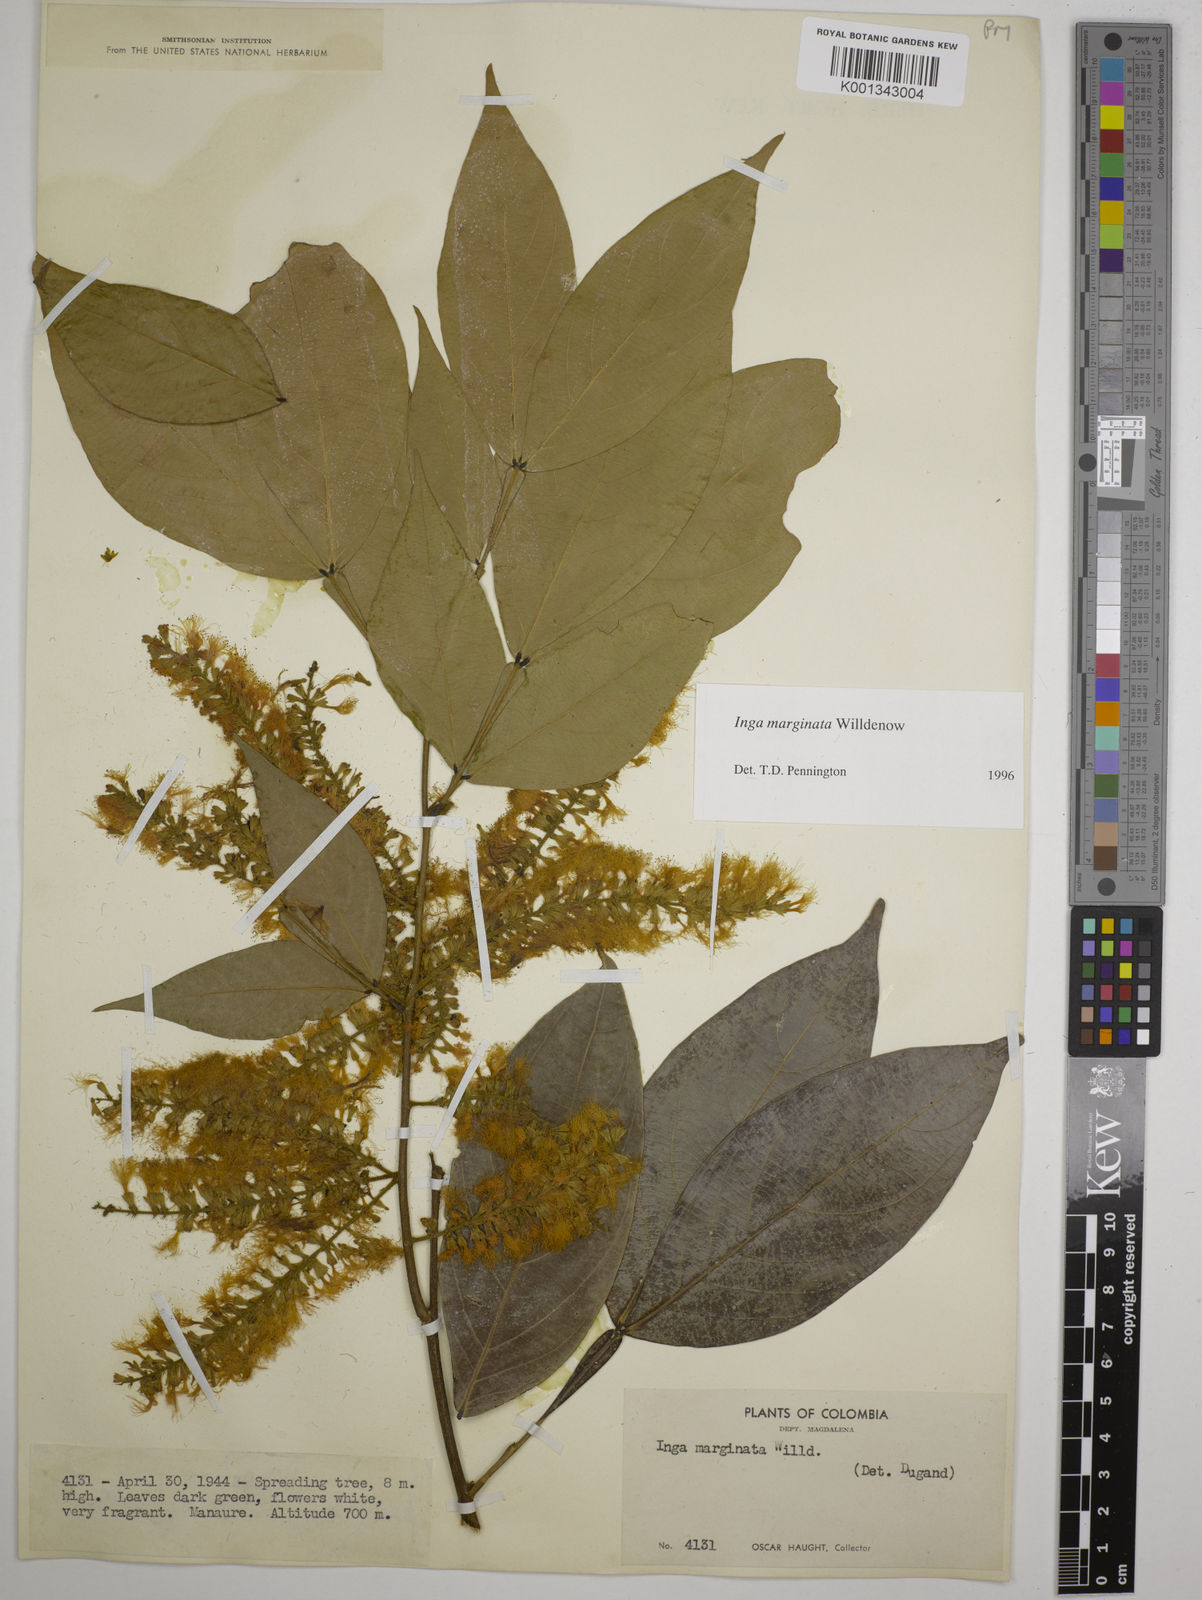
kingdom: Plantae
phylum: Tracheophyta
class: Magnoliopsida
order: Fabales
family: Fabaceae
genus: Inga
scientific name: Inga marginata
